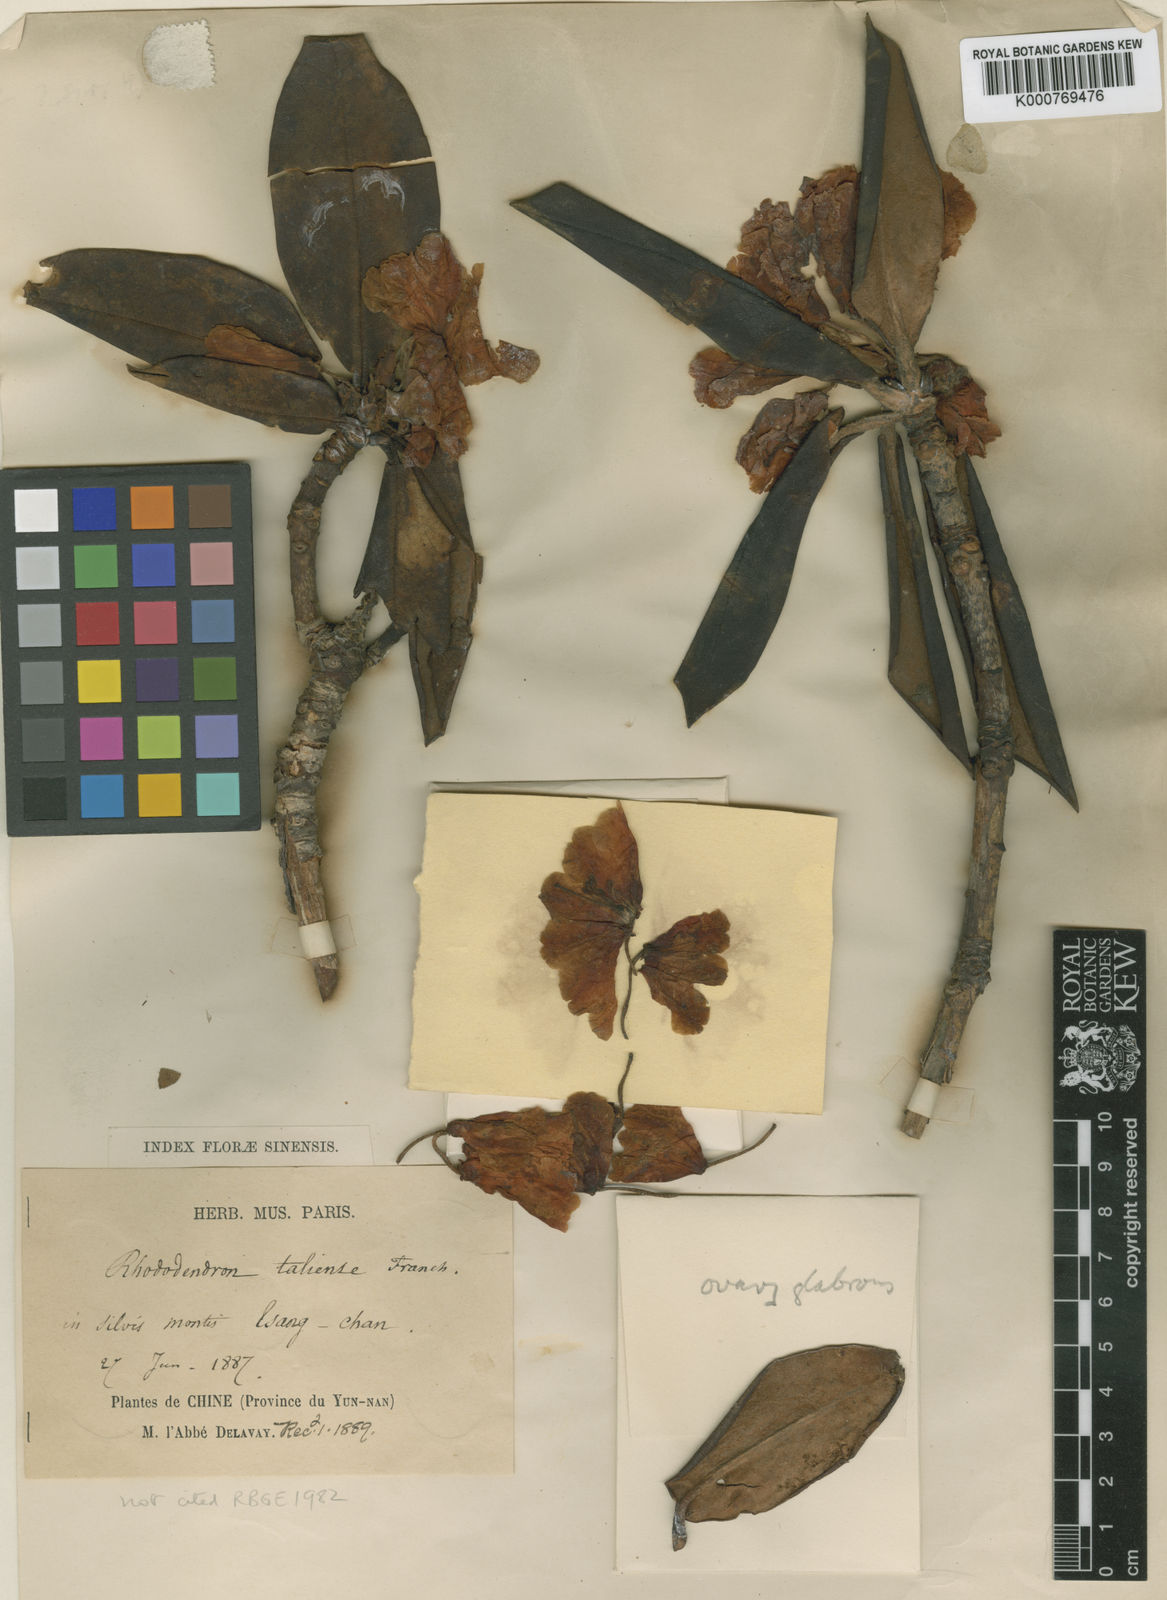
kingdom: Plantae
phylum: Tracheophyta
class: Magnoliopsida
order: Ericales
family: Ericaceae
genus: Rhododendron
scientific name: Rhododendron taliense
